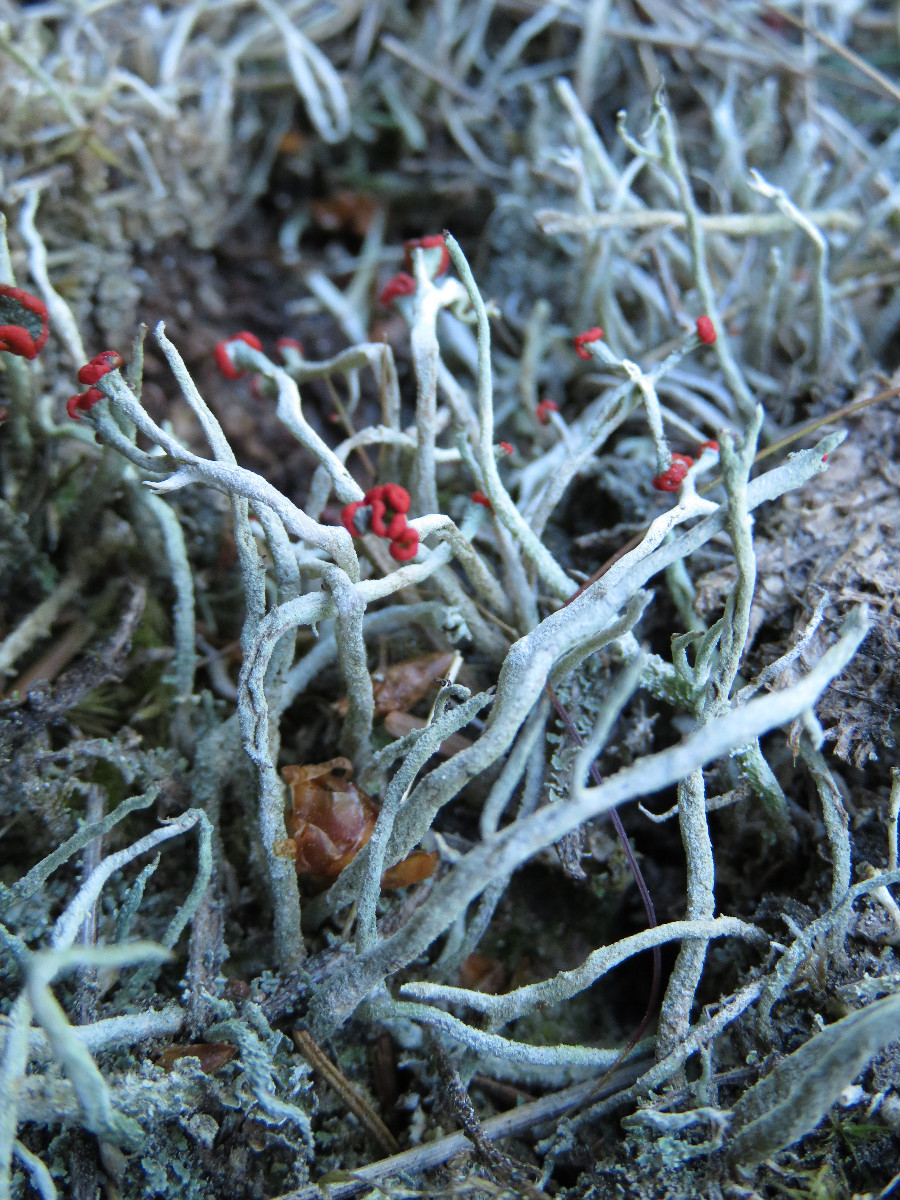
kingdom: Fungi
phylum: Ascomycota
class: Lecanoromycetes
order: Lecanorales
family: Cladoniaceae
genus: Cladonia
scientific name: Cladonia macilenta
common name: indsvunden bægerlav
